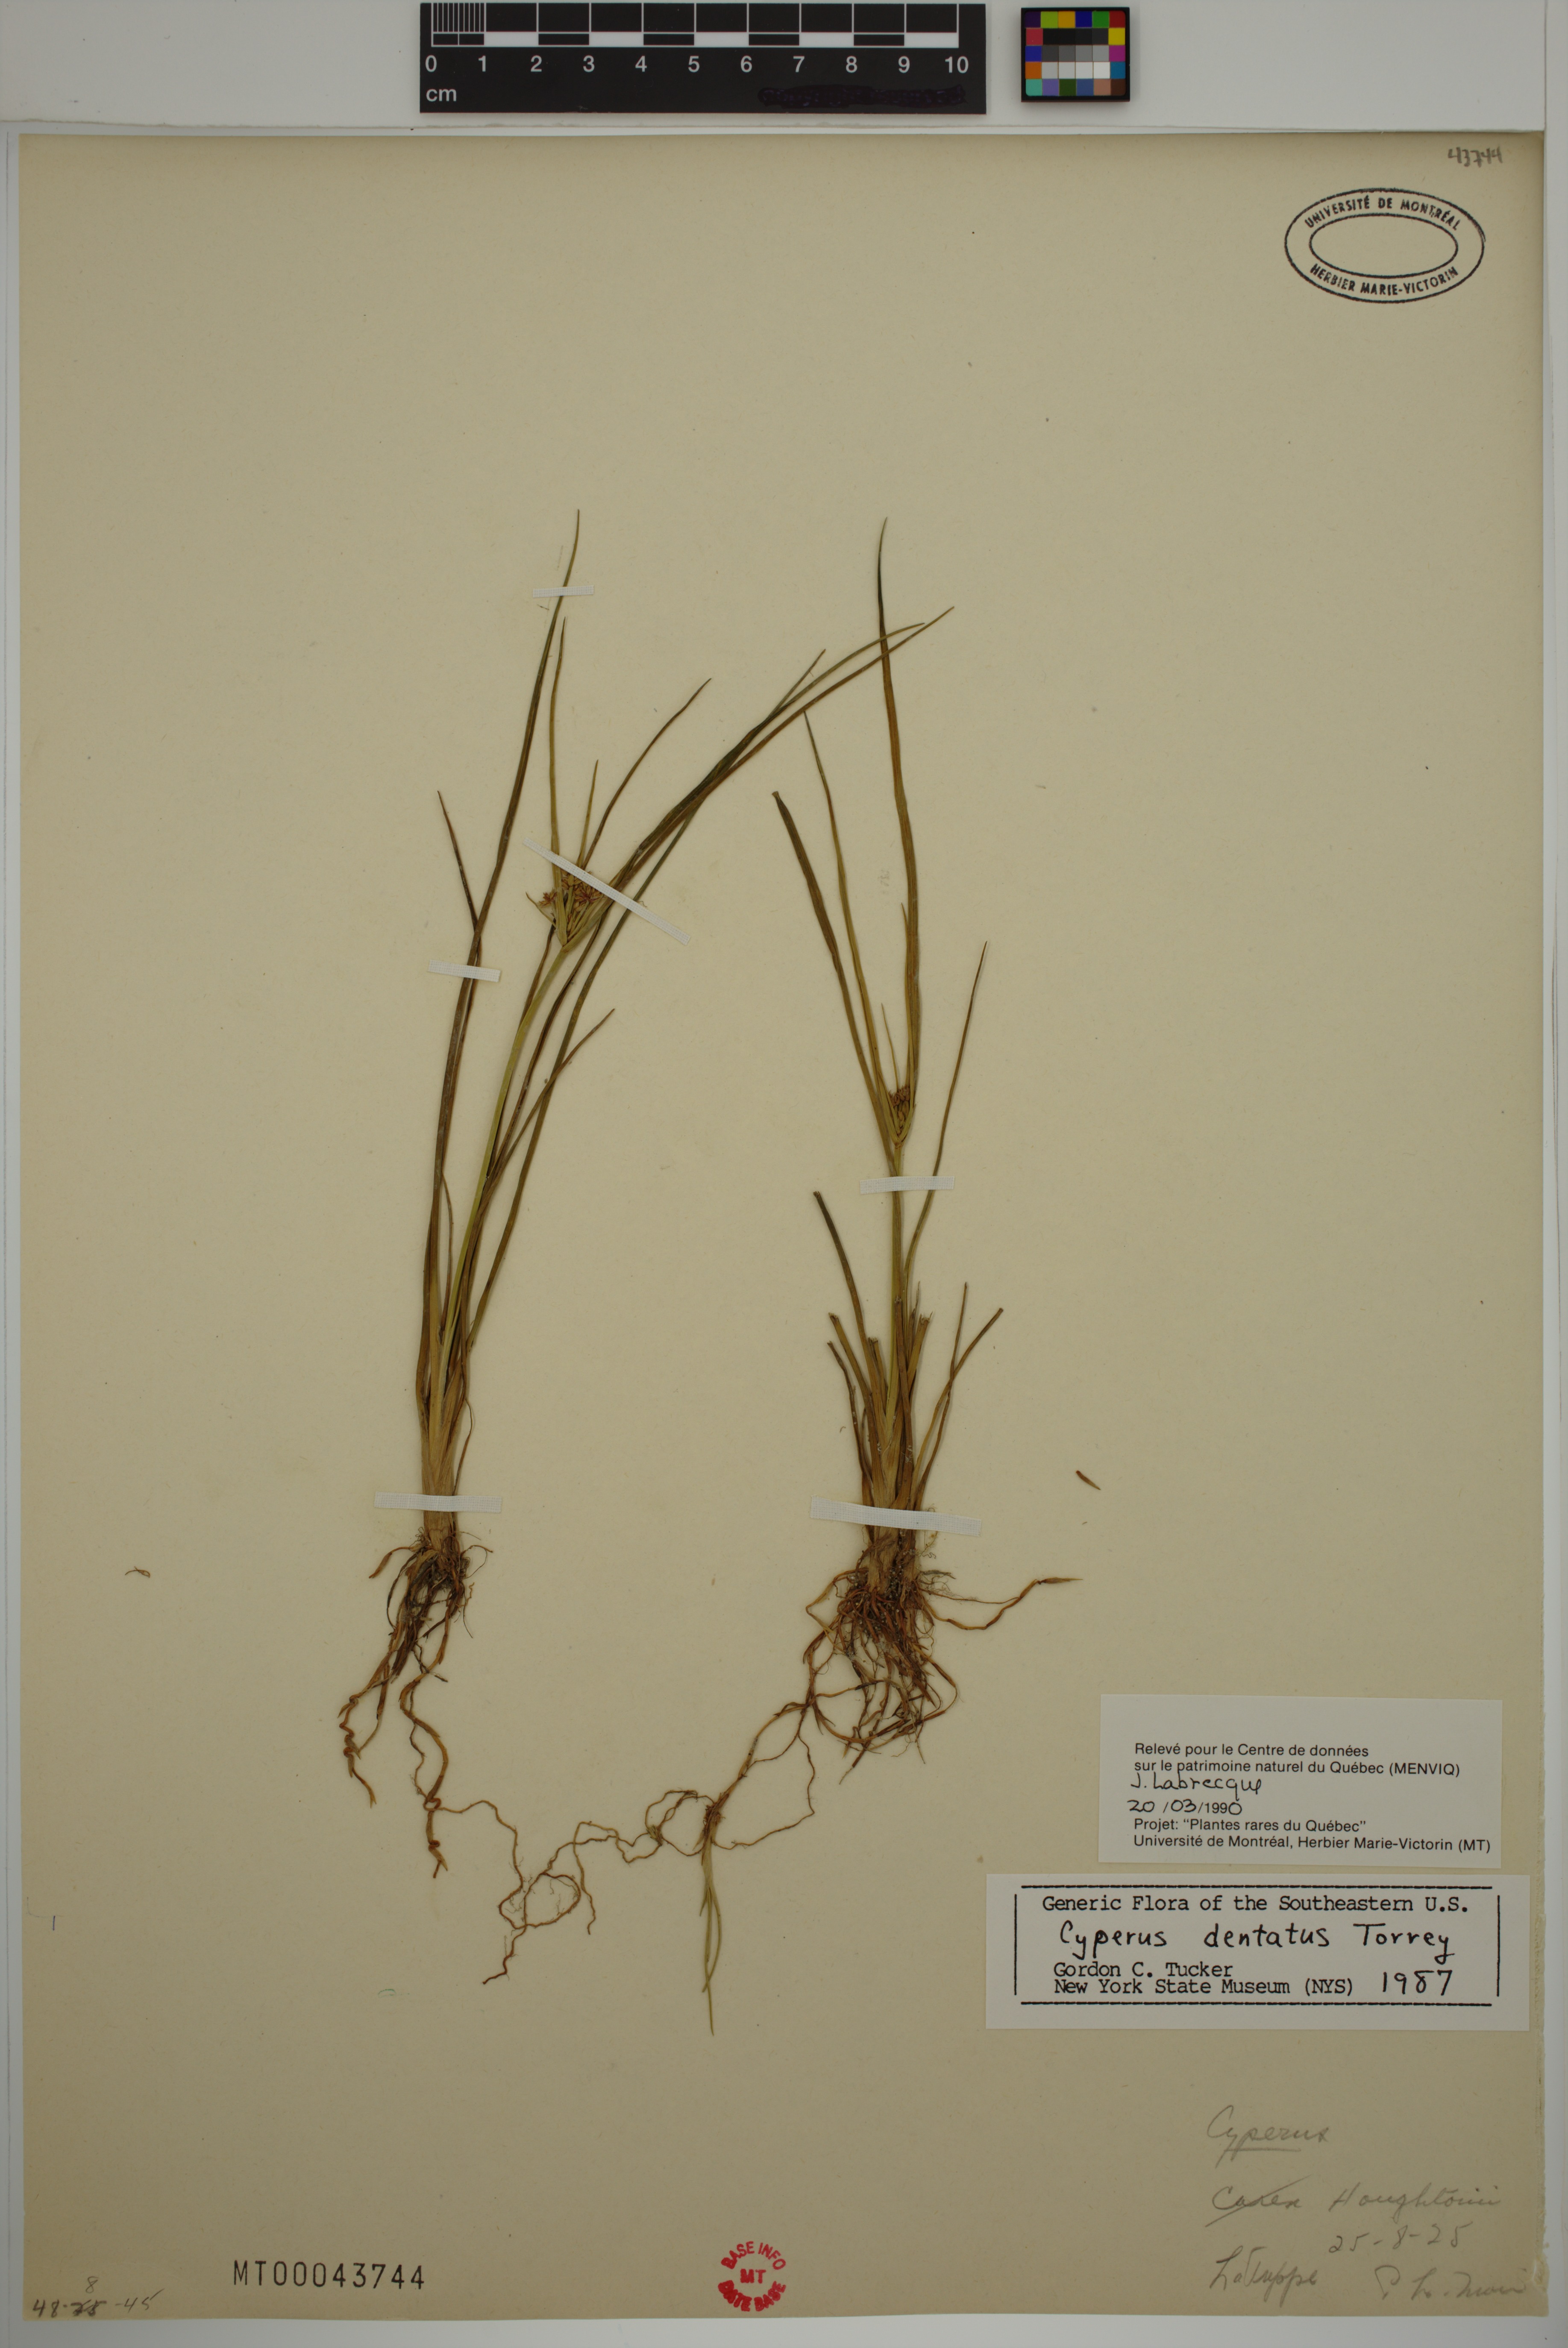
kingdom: Plantae
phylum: Tracheophyta
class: Liliopsida
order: Poales
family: Cyperaceae
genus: Cyperus
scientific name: Cyperus dentatus
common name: Dentate umbrella sedge
